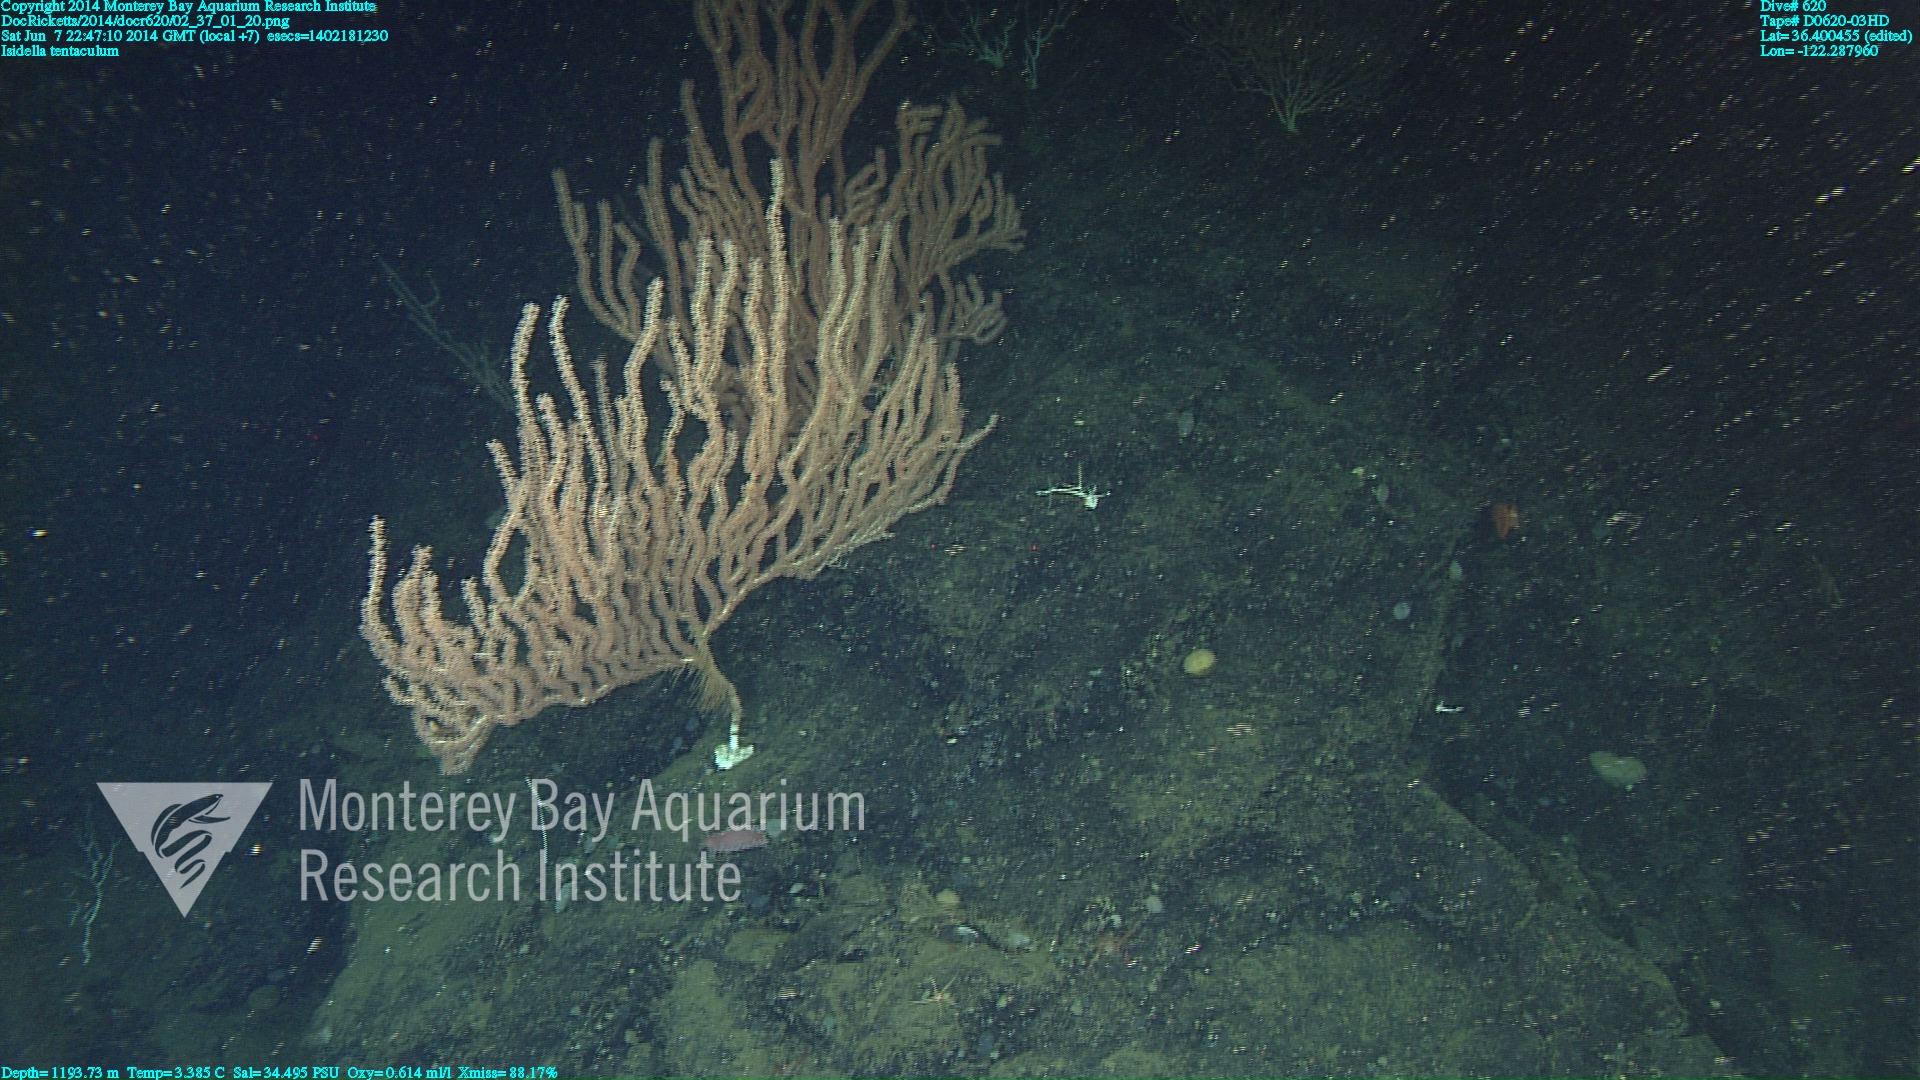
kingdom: Animalia
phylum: Cnidaria
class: Anthozoa
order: Scleralcyonacea
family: Keratoisididae
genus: Isidella
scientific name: Isidella tentaculum
